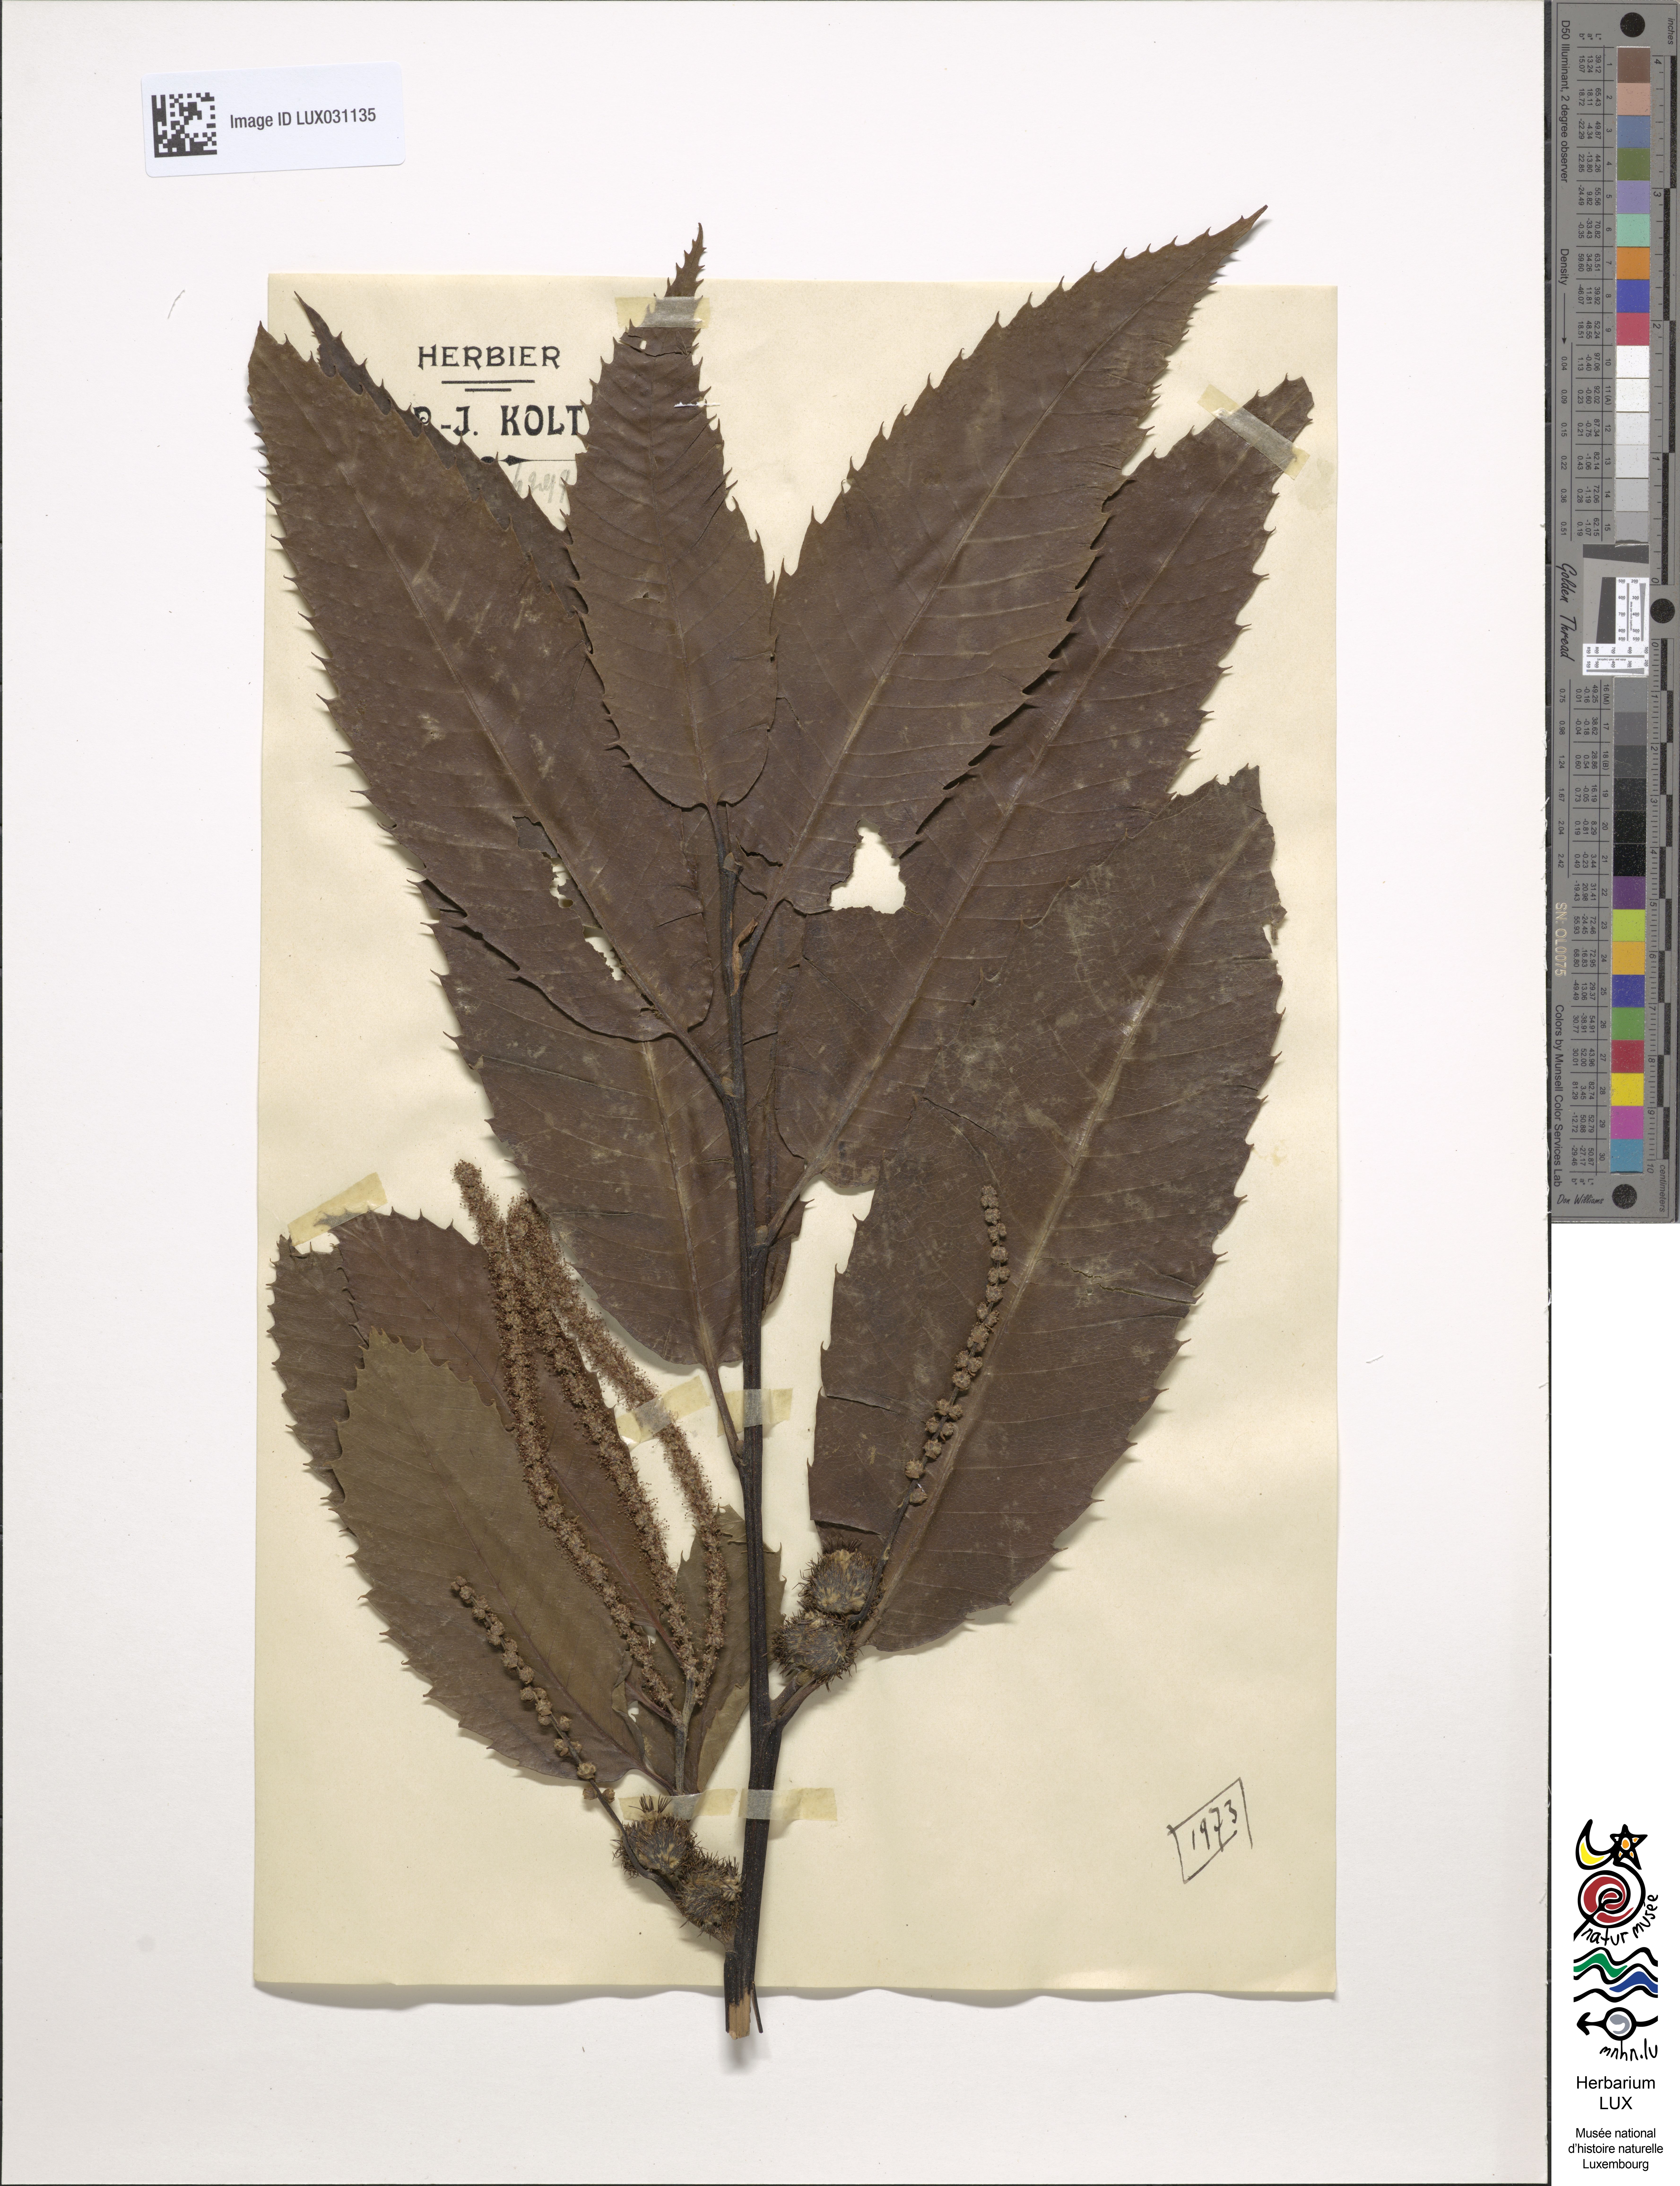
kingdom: Plantae
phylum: Tracheophyta
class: Magnoliopsida
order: Fagales
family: Fagaceae
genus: Castanea
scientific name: Castanea sativa
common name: Sweet chestnut
